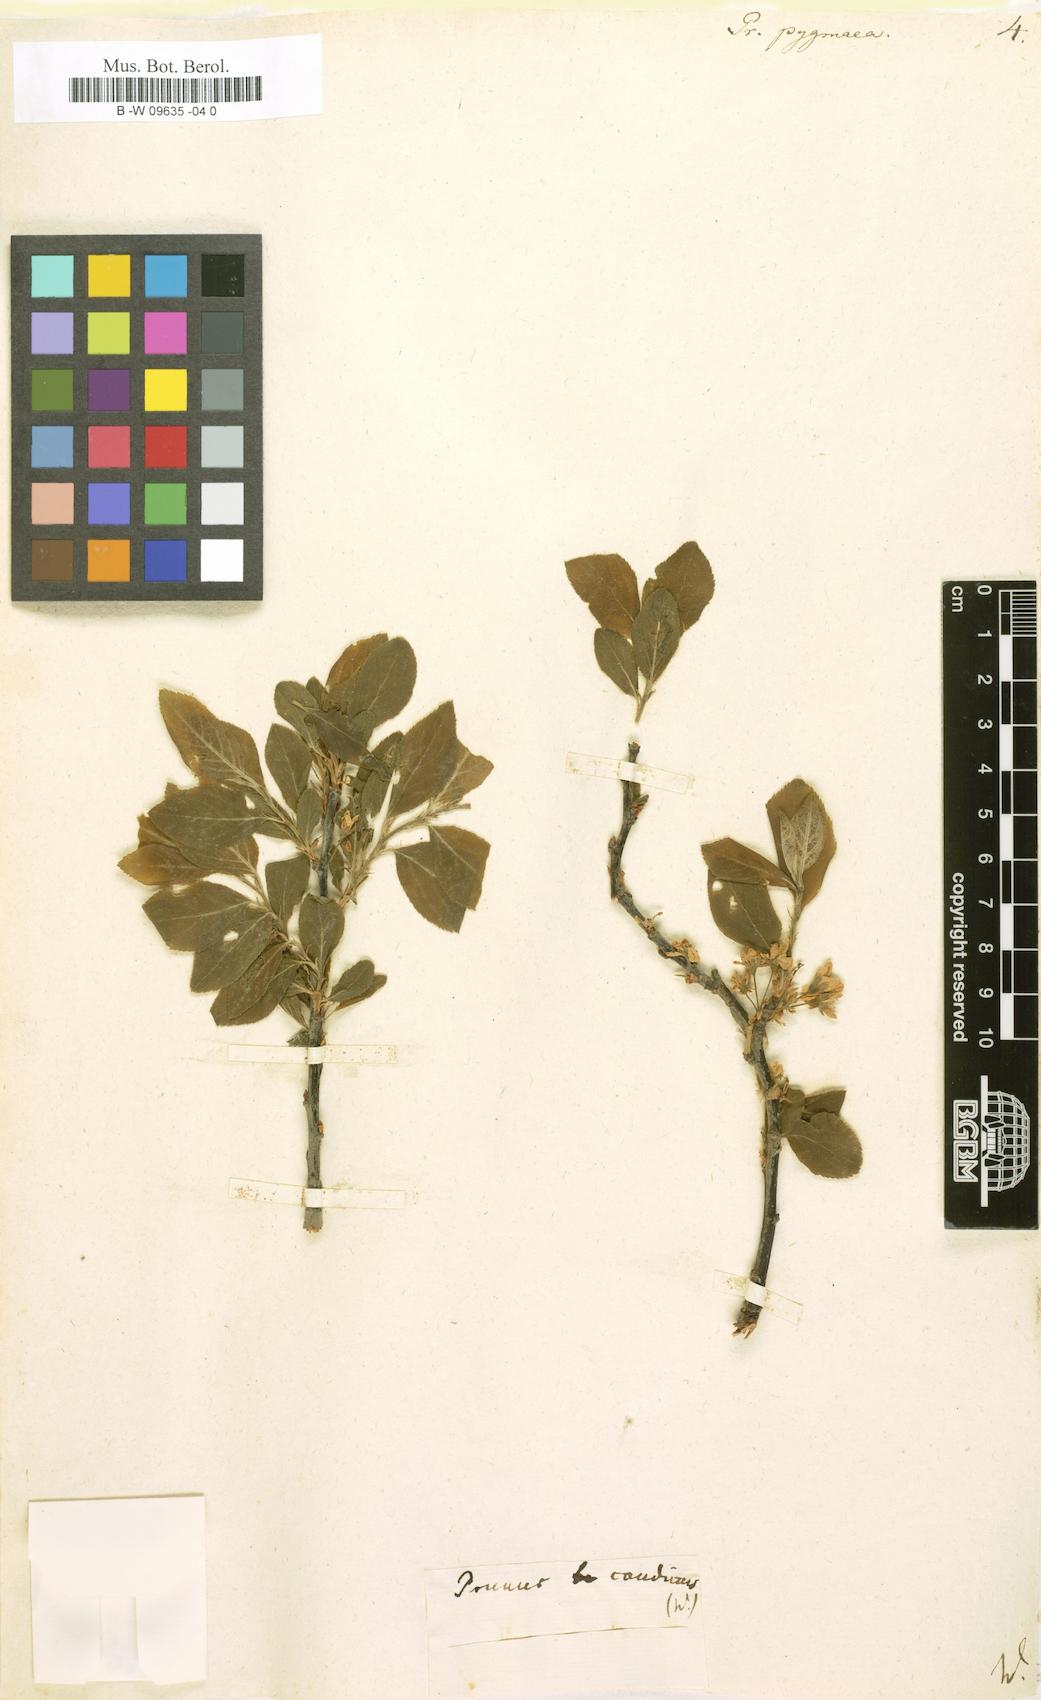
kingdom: Plantae
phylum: Tracheophyta
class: Magnoliopsida
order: Rosales
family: Rosaceae
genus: Prunus
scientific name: Prunus maritima
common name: Beach plum
